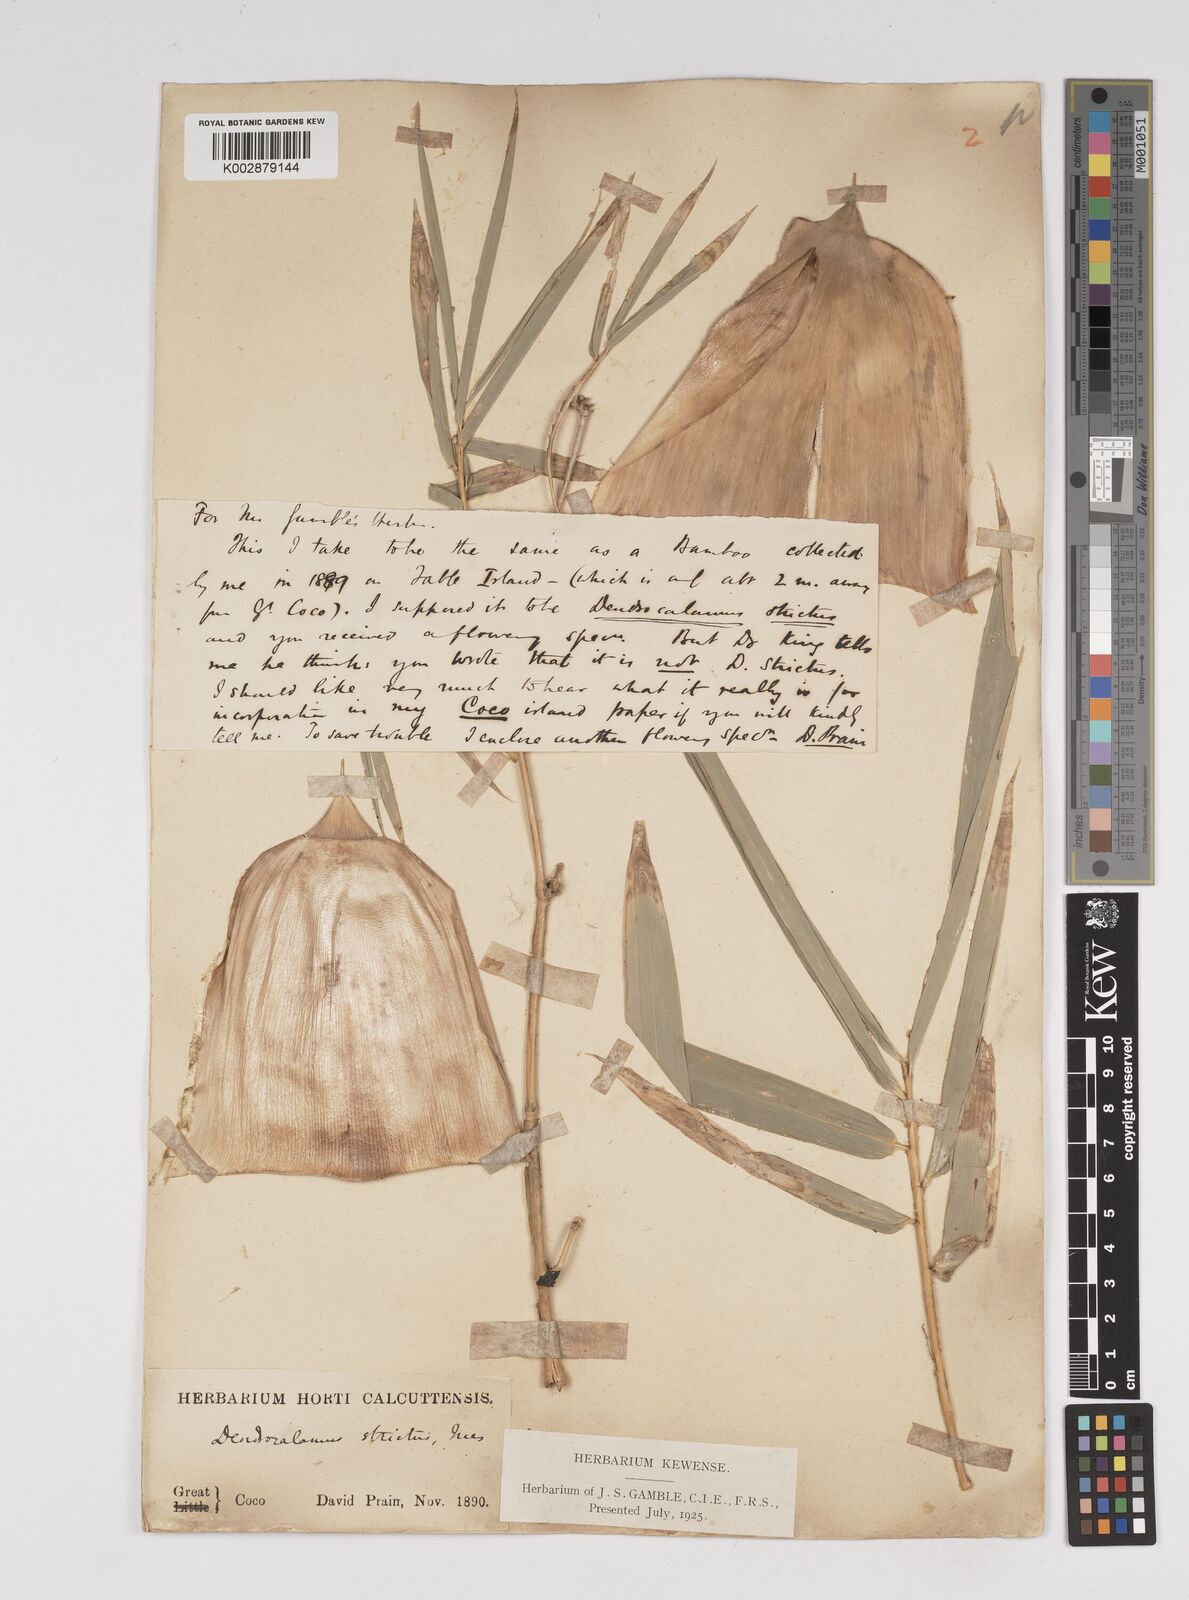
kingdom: Plantae
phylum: Tracheophyta
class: Liliopsida
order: Poales
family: Poaceae
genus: Dendrocalamus
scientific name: Dendrocalamus strictus
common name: Male bamboo
